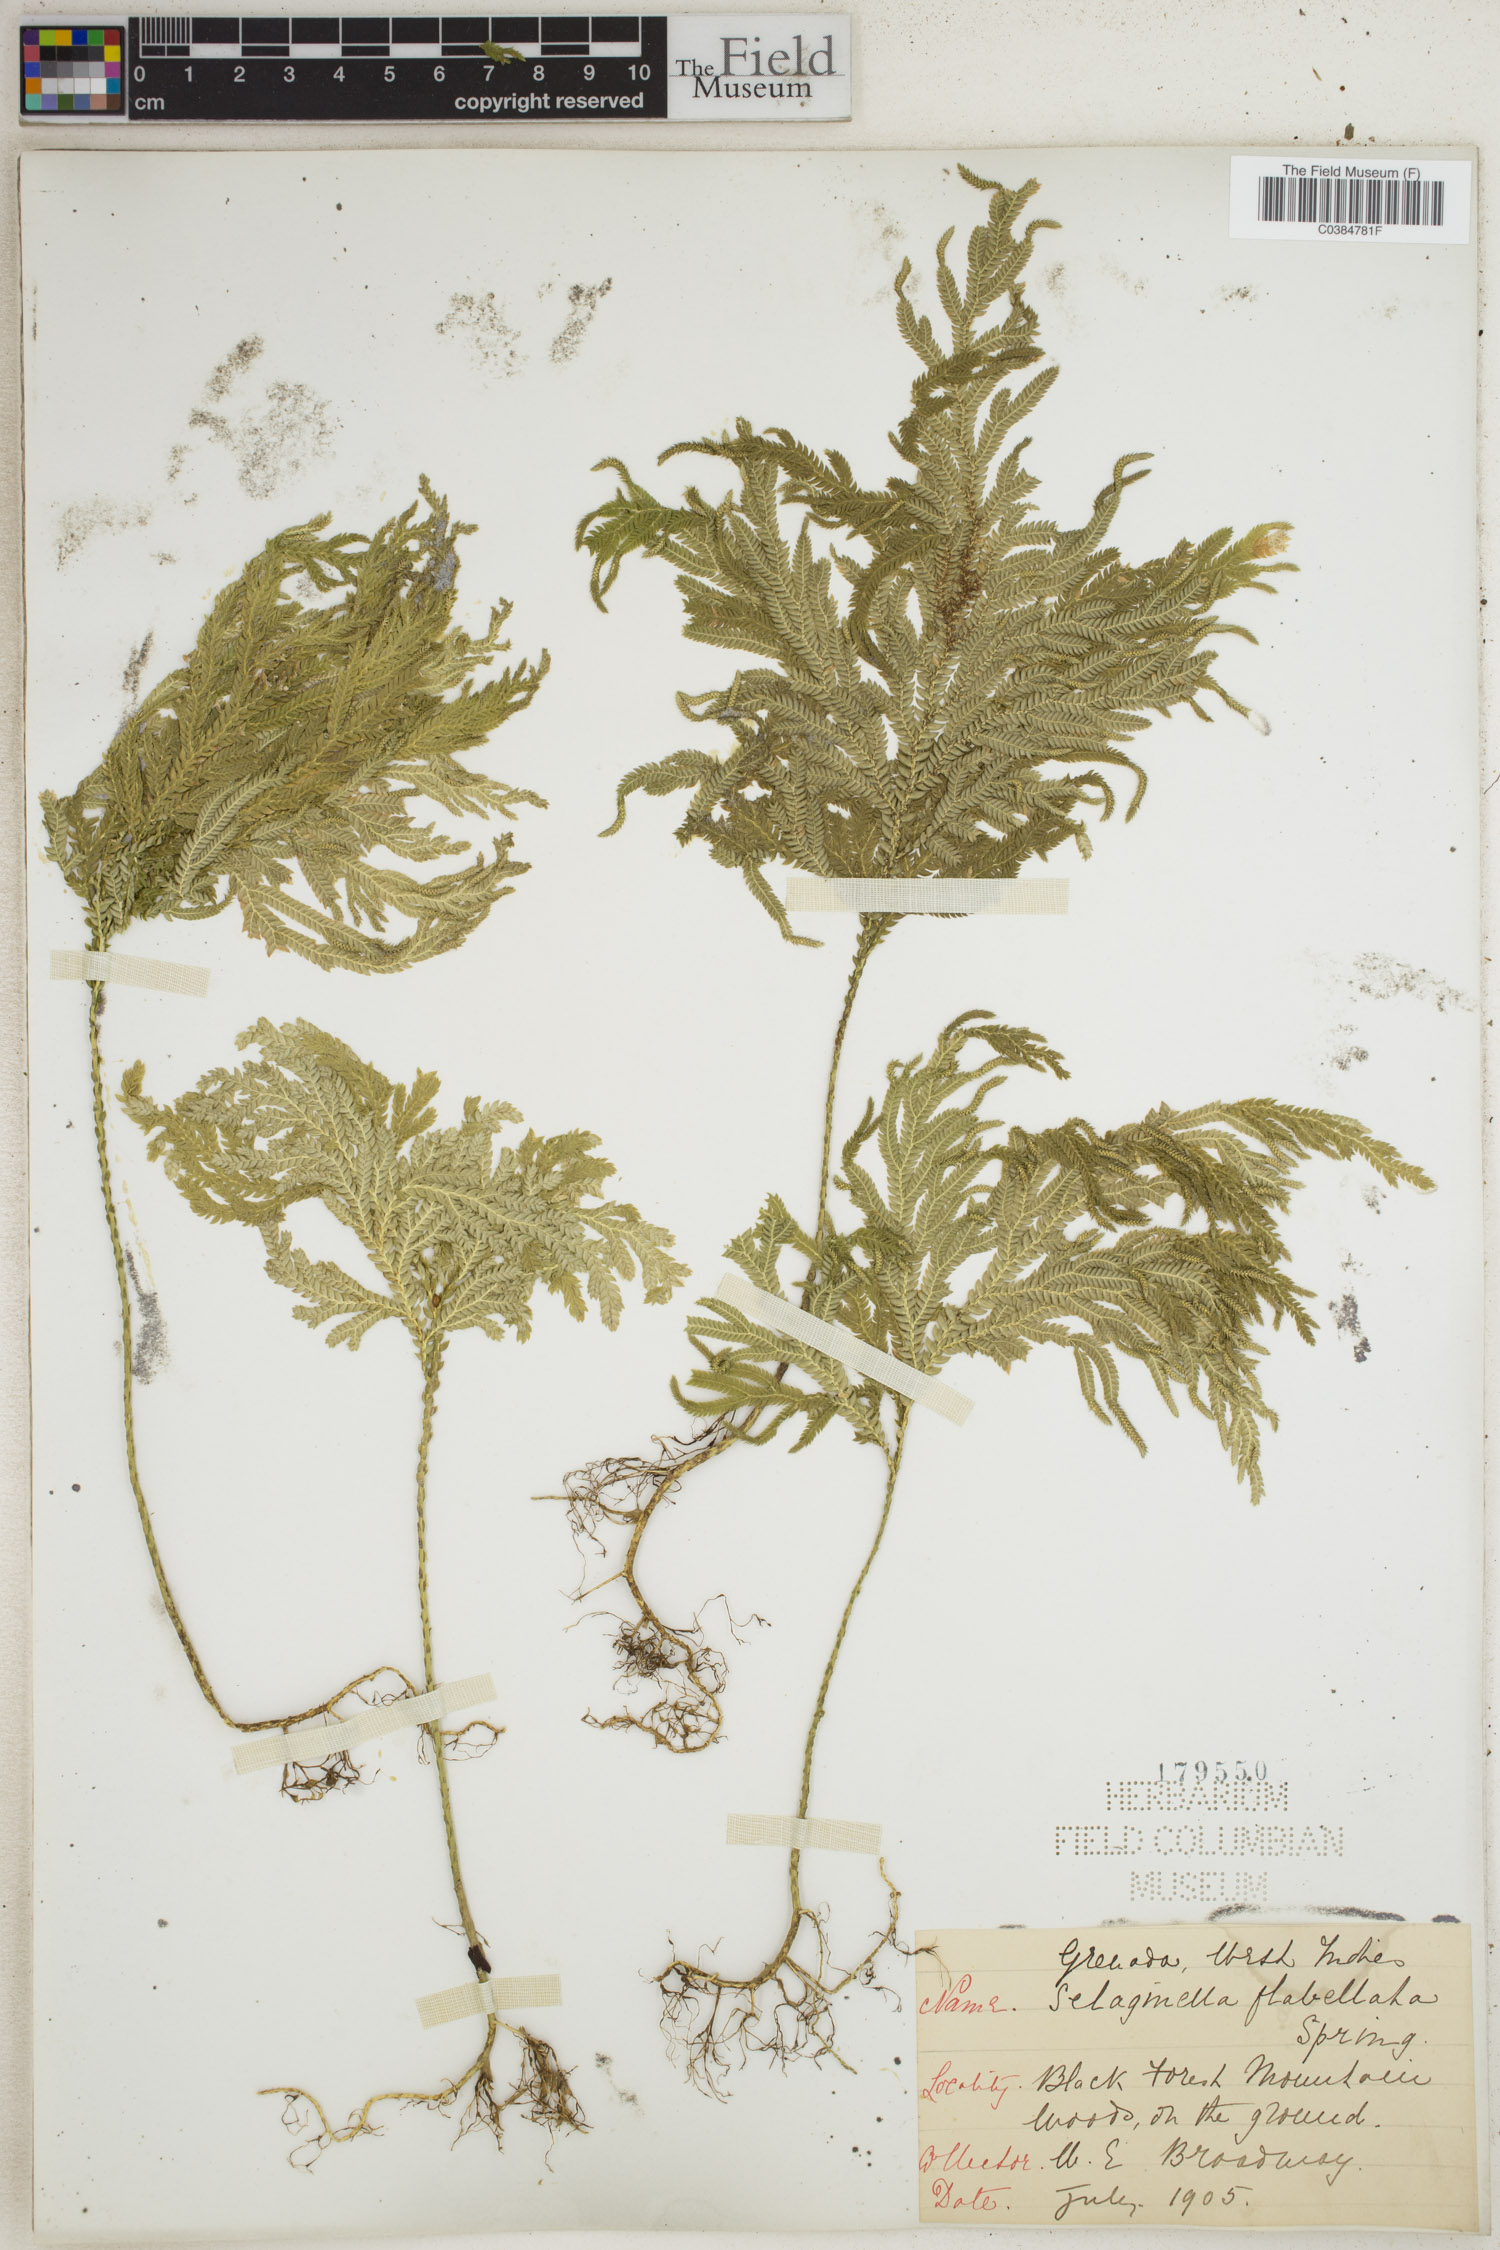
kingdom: Plantae
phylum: Tracheophyta
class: Lycopodiopsida
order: Selaginellales
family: Selaginellaceae
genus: Selaginella
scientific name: Selaginella flabellata
